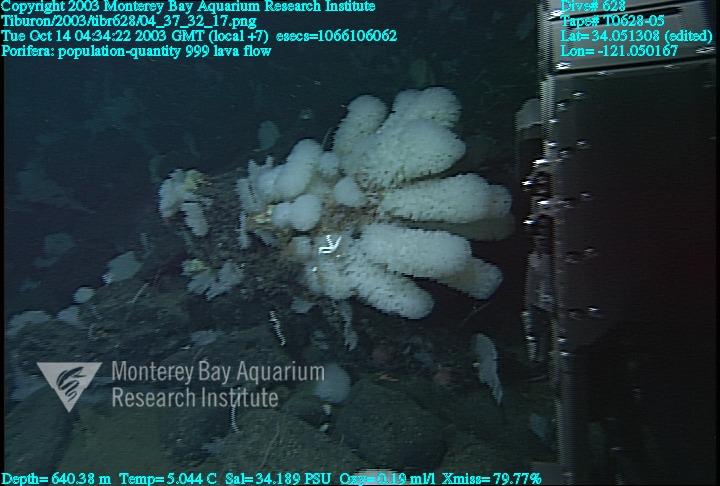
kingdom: Animalia
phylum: Porifera
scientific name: Porifera
